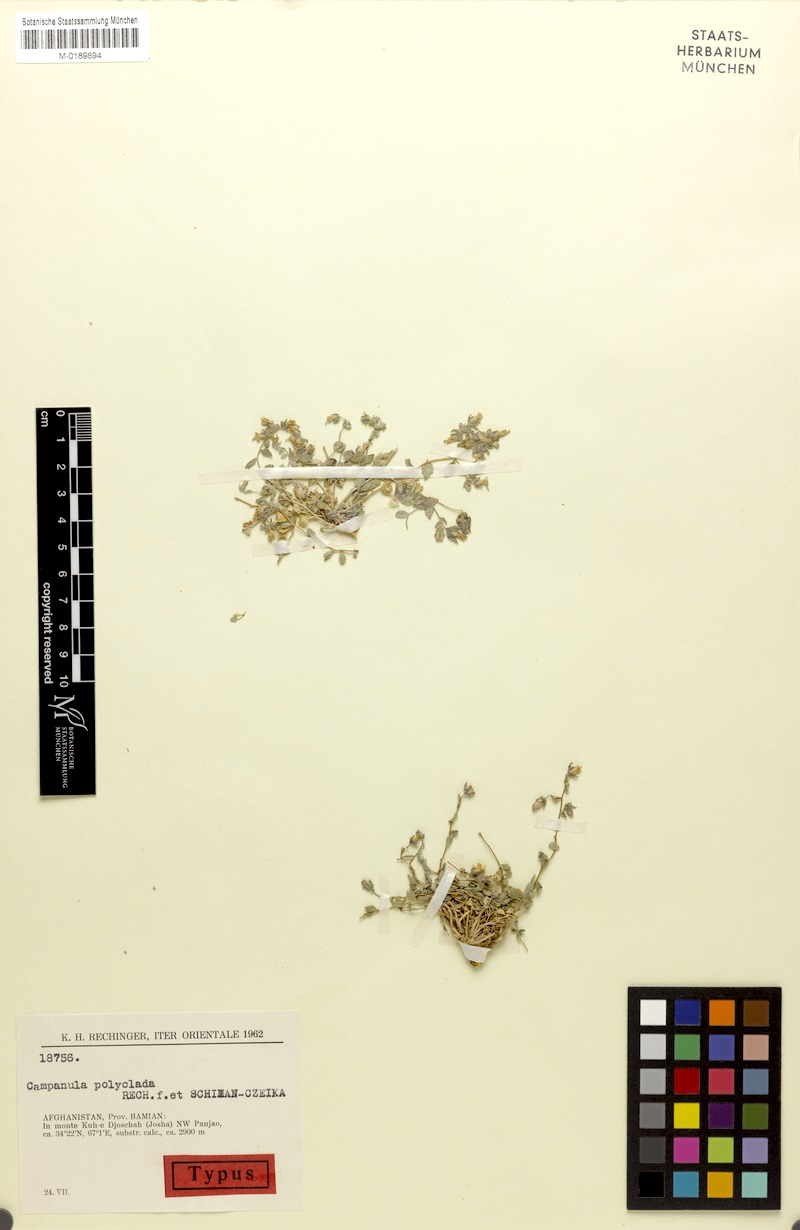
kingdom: Plantae
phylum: Tracheophyta
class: Magnoliopsida
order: Asterales
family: Campanulaceae
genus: Campanula
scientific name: Campanula polyclada
